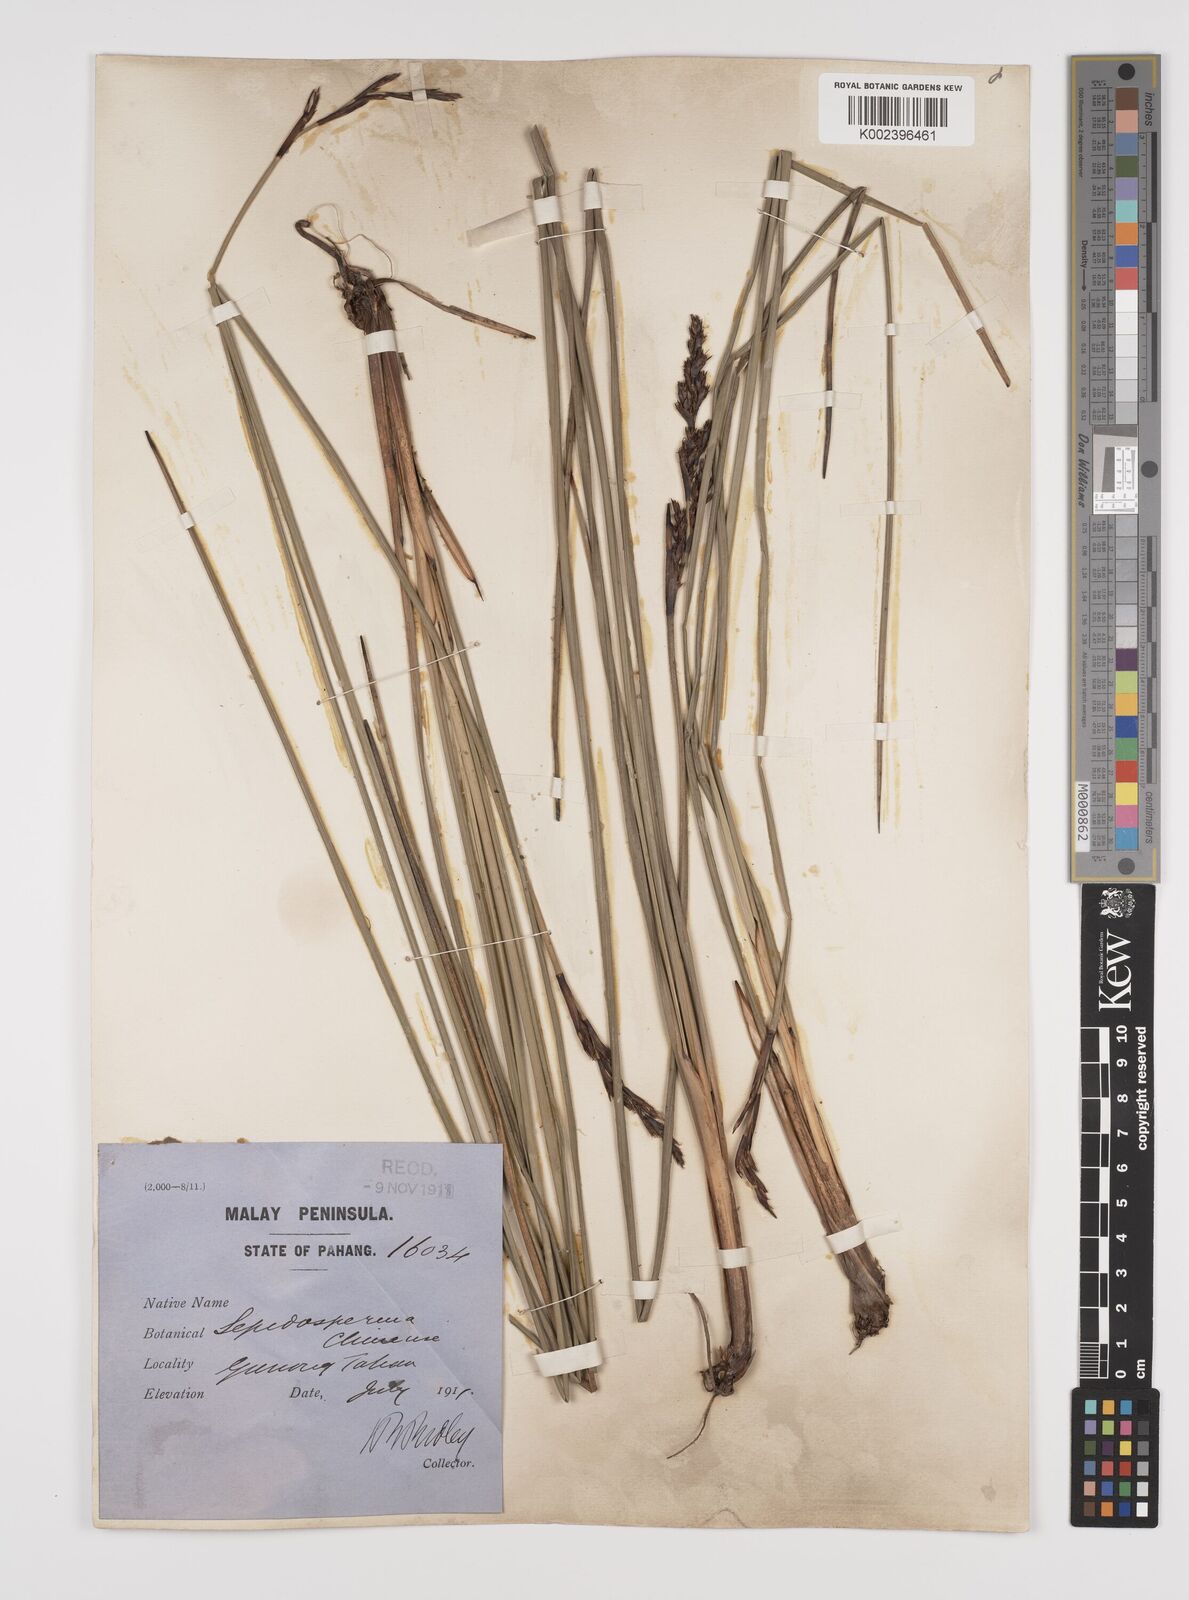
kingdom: Plantae
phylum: Tracheophyta
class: Liliopsida
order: Poales
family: Cyperaceae
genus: Lepidosperma
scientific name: Lepidosperma chinense
